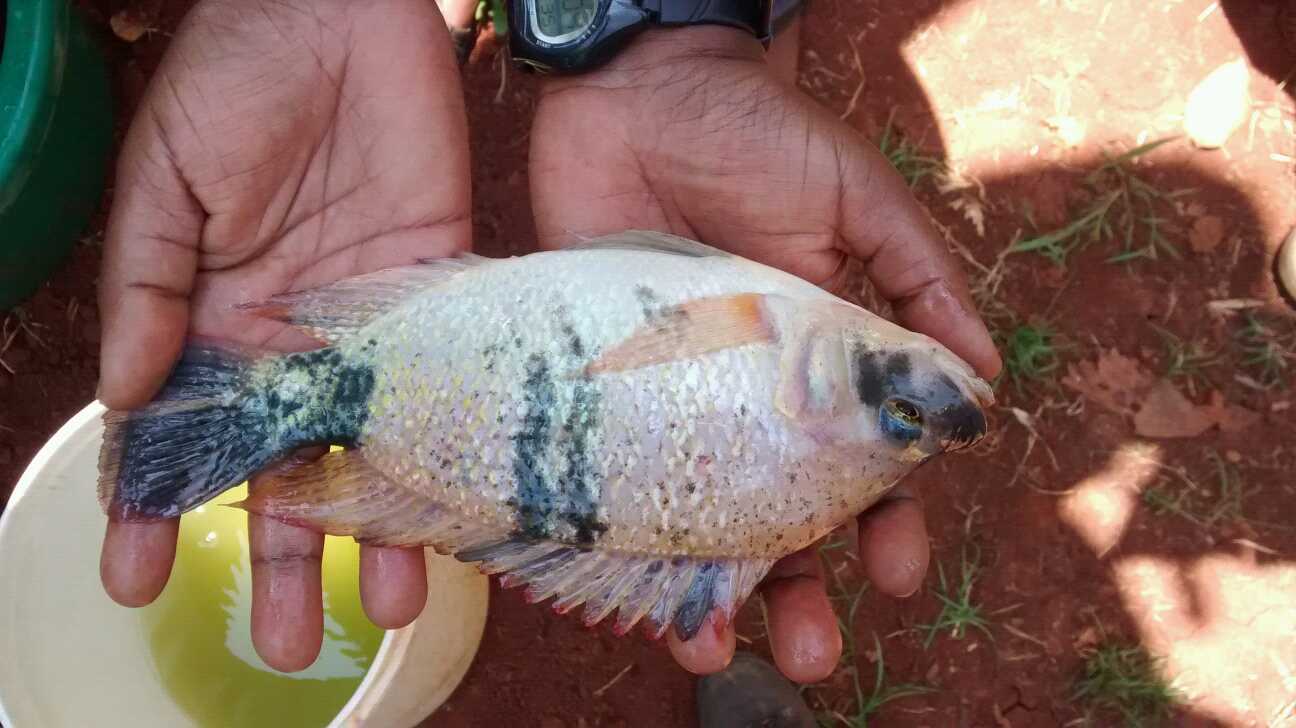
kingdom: Animalia
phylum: Chordata
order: Perciformes
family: Cichlidae
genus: Oreochromis
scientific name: Oreochromis mossambicus
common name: Mozambique tilapia
